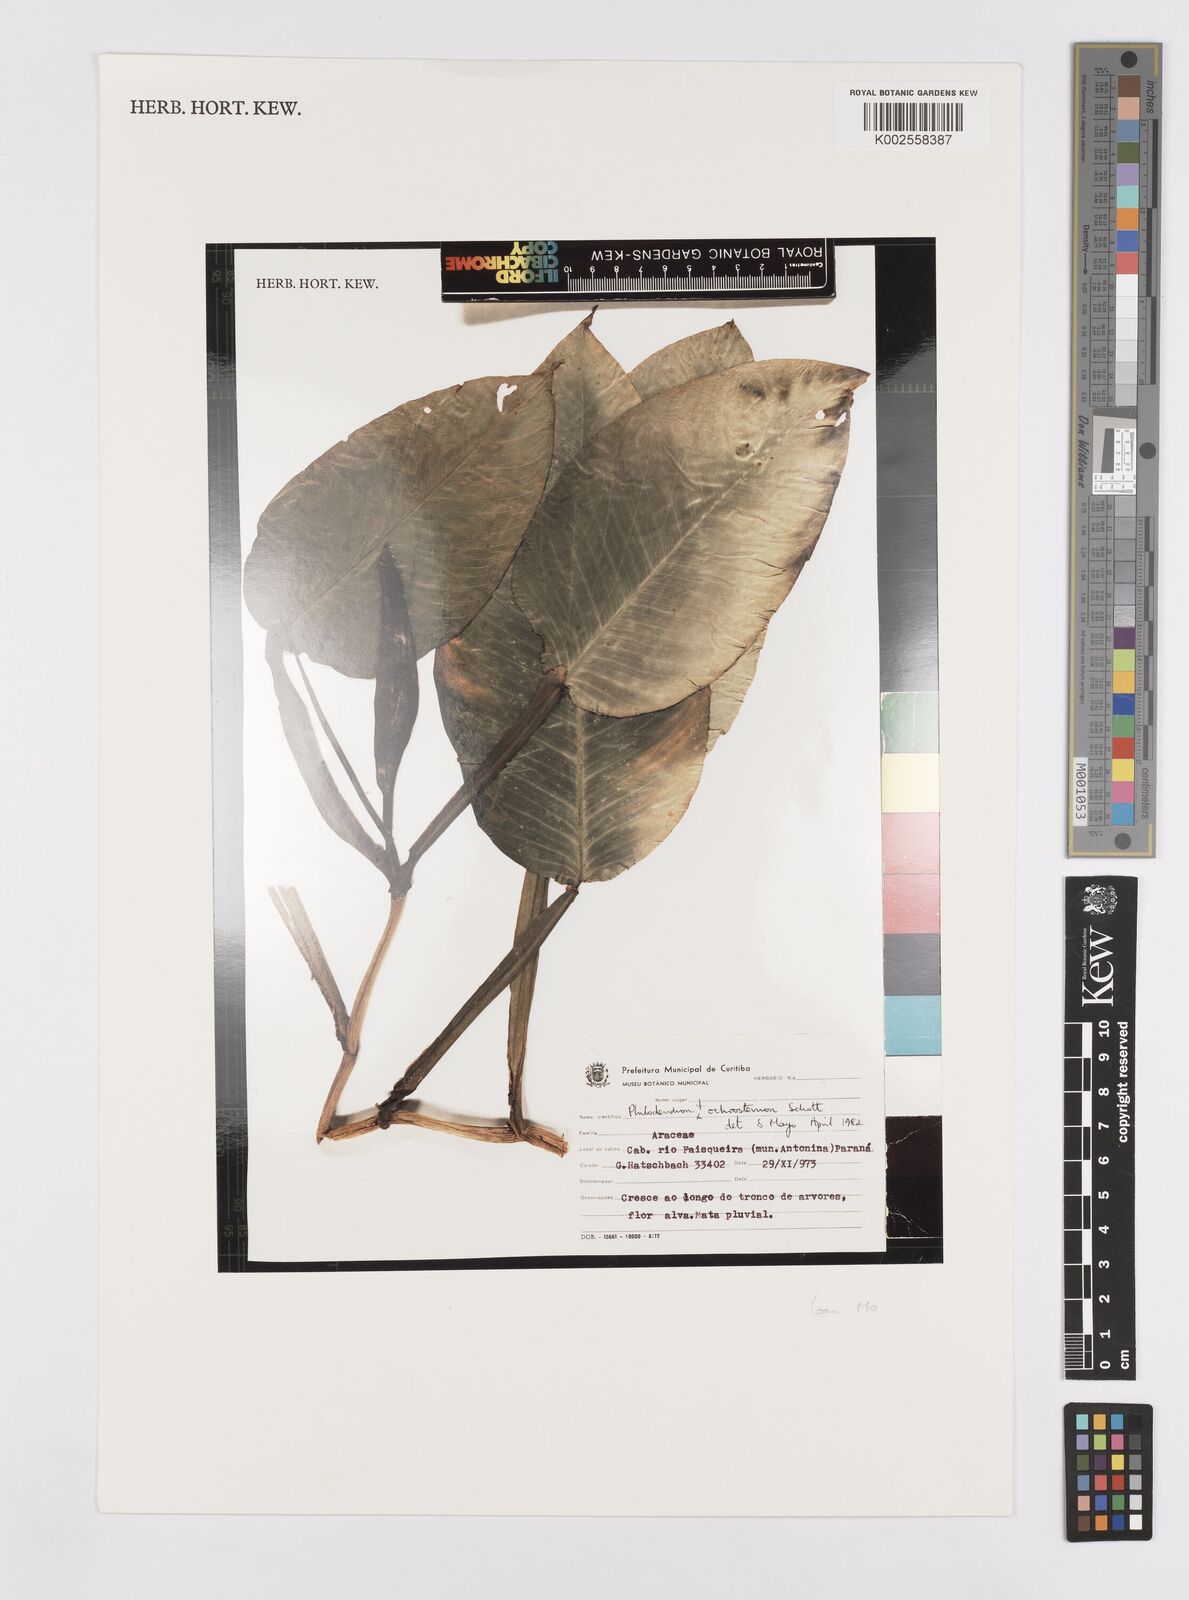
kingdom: Plantae
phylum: Tracheophyta
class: Liliopsida
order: Alismatales
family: Araceae
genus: Philodendron
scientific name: Philodendron ochrostemon
